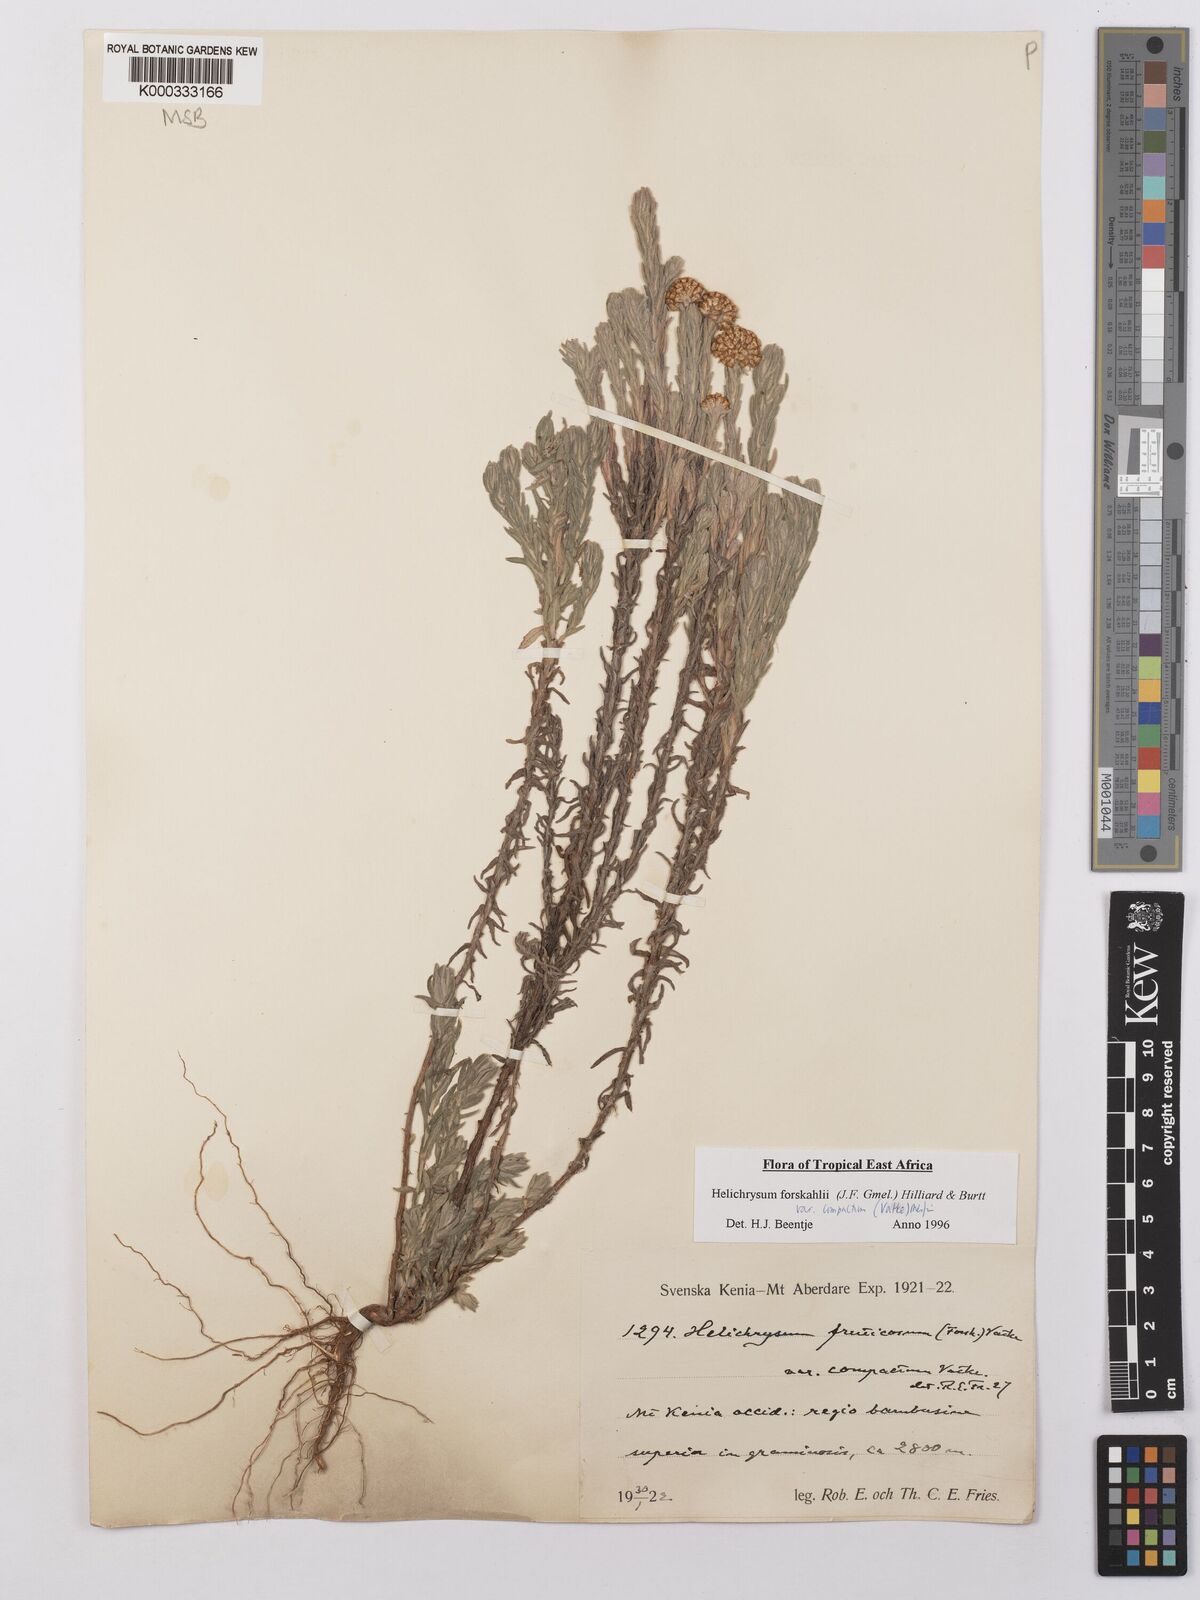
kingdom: Plantae
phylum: Tracheophyta
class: Magnoliopsida
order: Asterales
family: Asteraceae
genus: Helichrysum
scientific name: Helichrysum forskahlii
